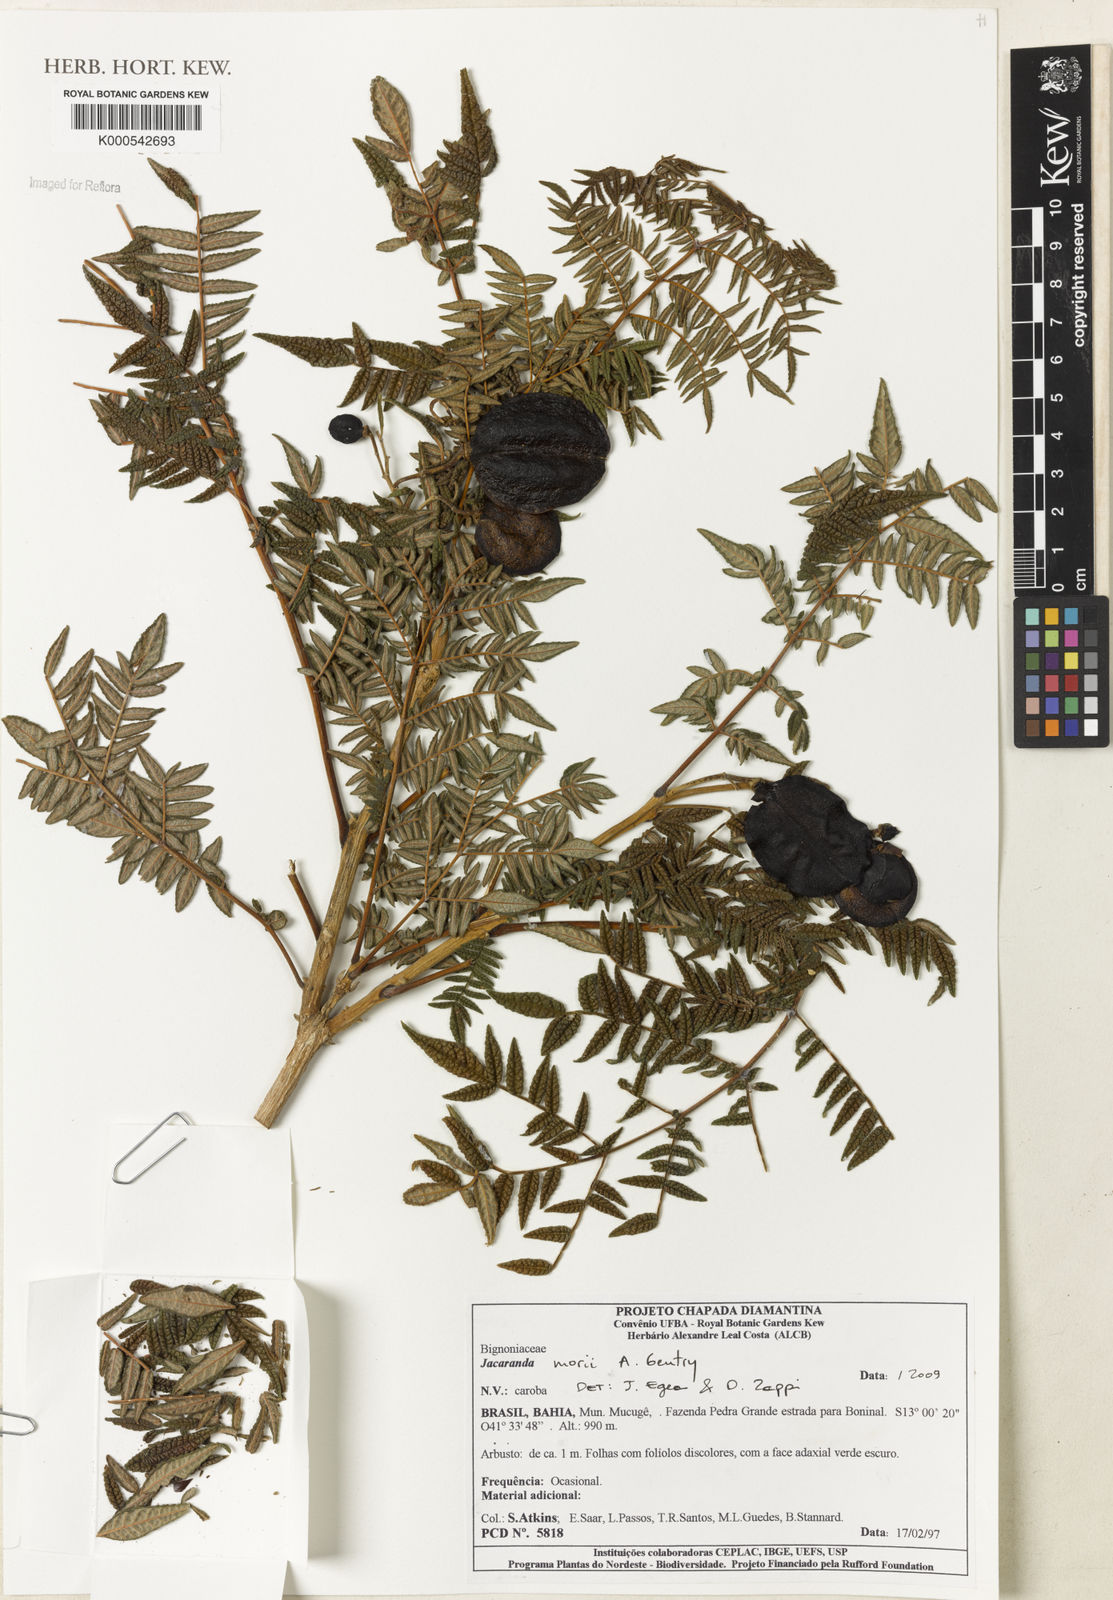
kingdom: Plantae
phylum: Tracheophyta
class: Magnoliopsida
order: Lamiales
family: Bignoniaceae
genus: Jacaranda
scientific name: Jacaranda ulei
